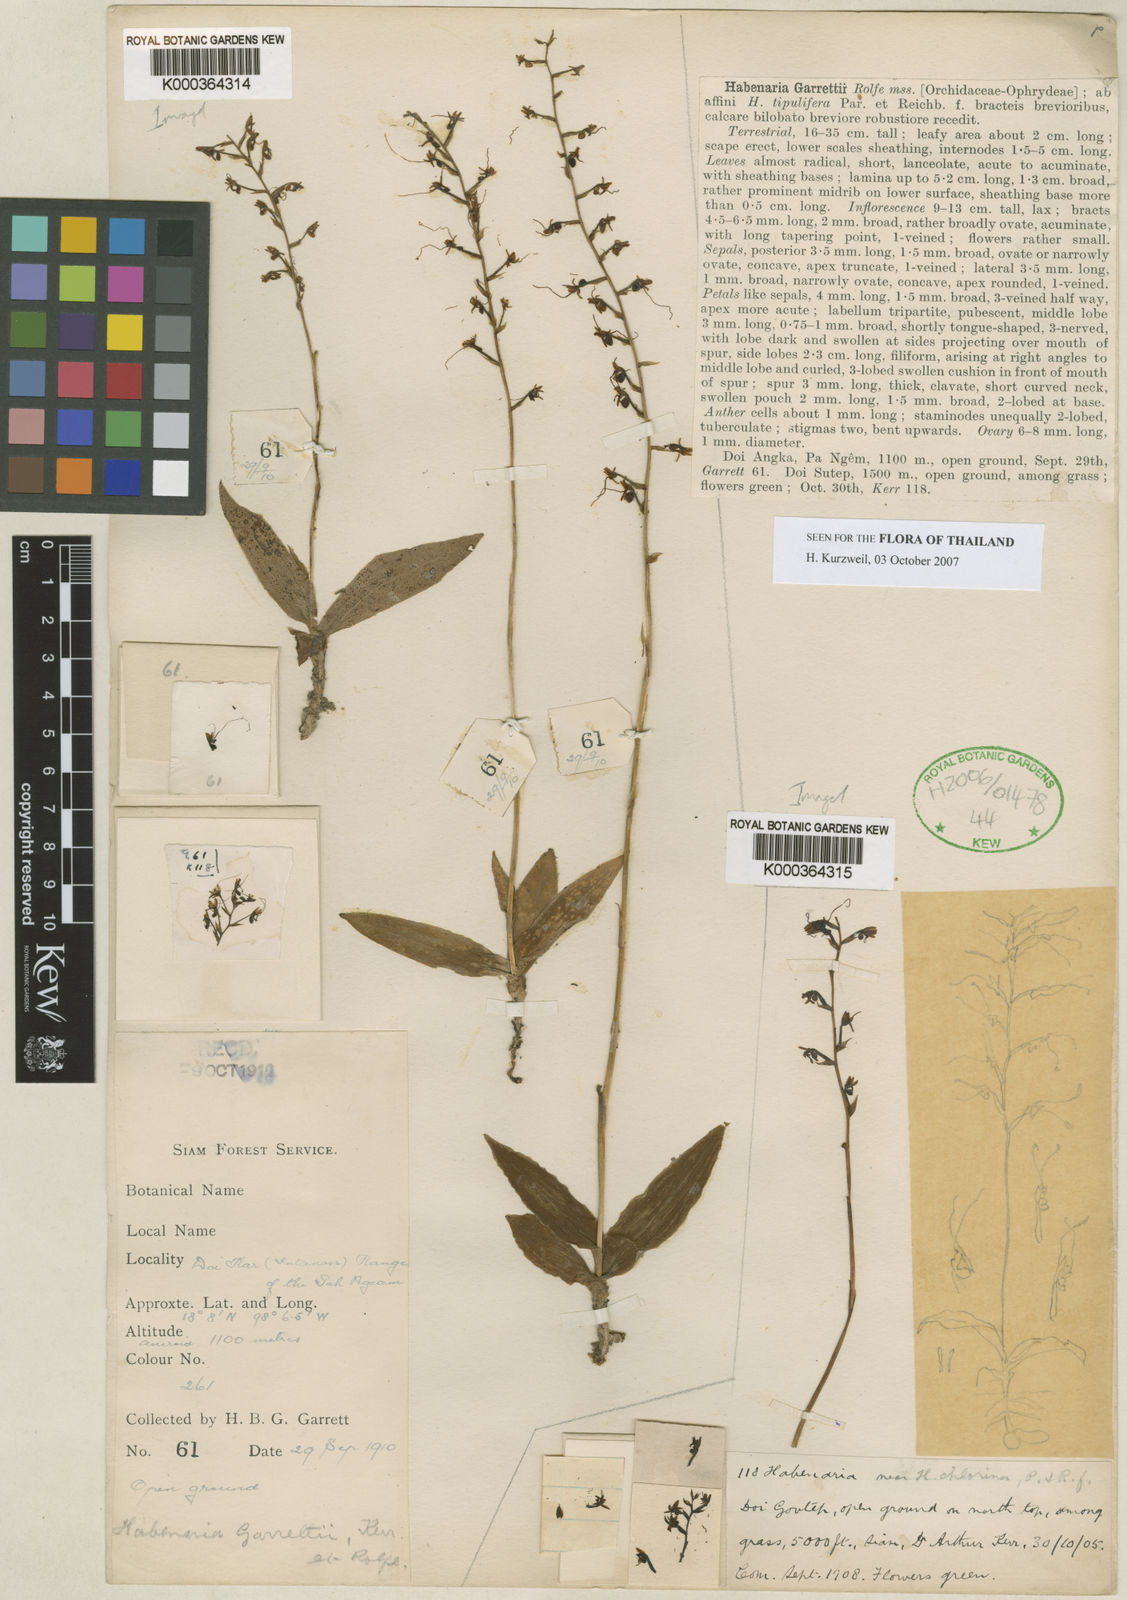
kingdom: Plantae
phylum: Tracheophyta
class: Liliopsida
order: Asparagales
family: Orchidaceae
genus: Peristylus
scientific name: Peristylus tipulifer
